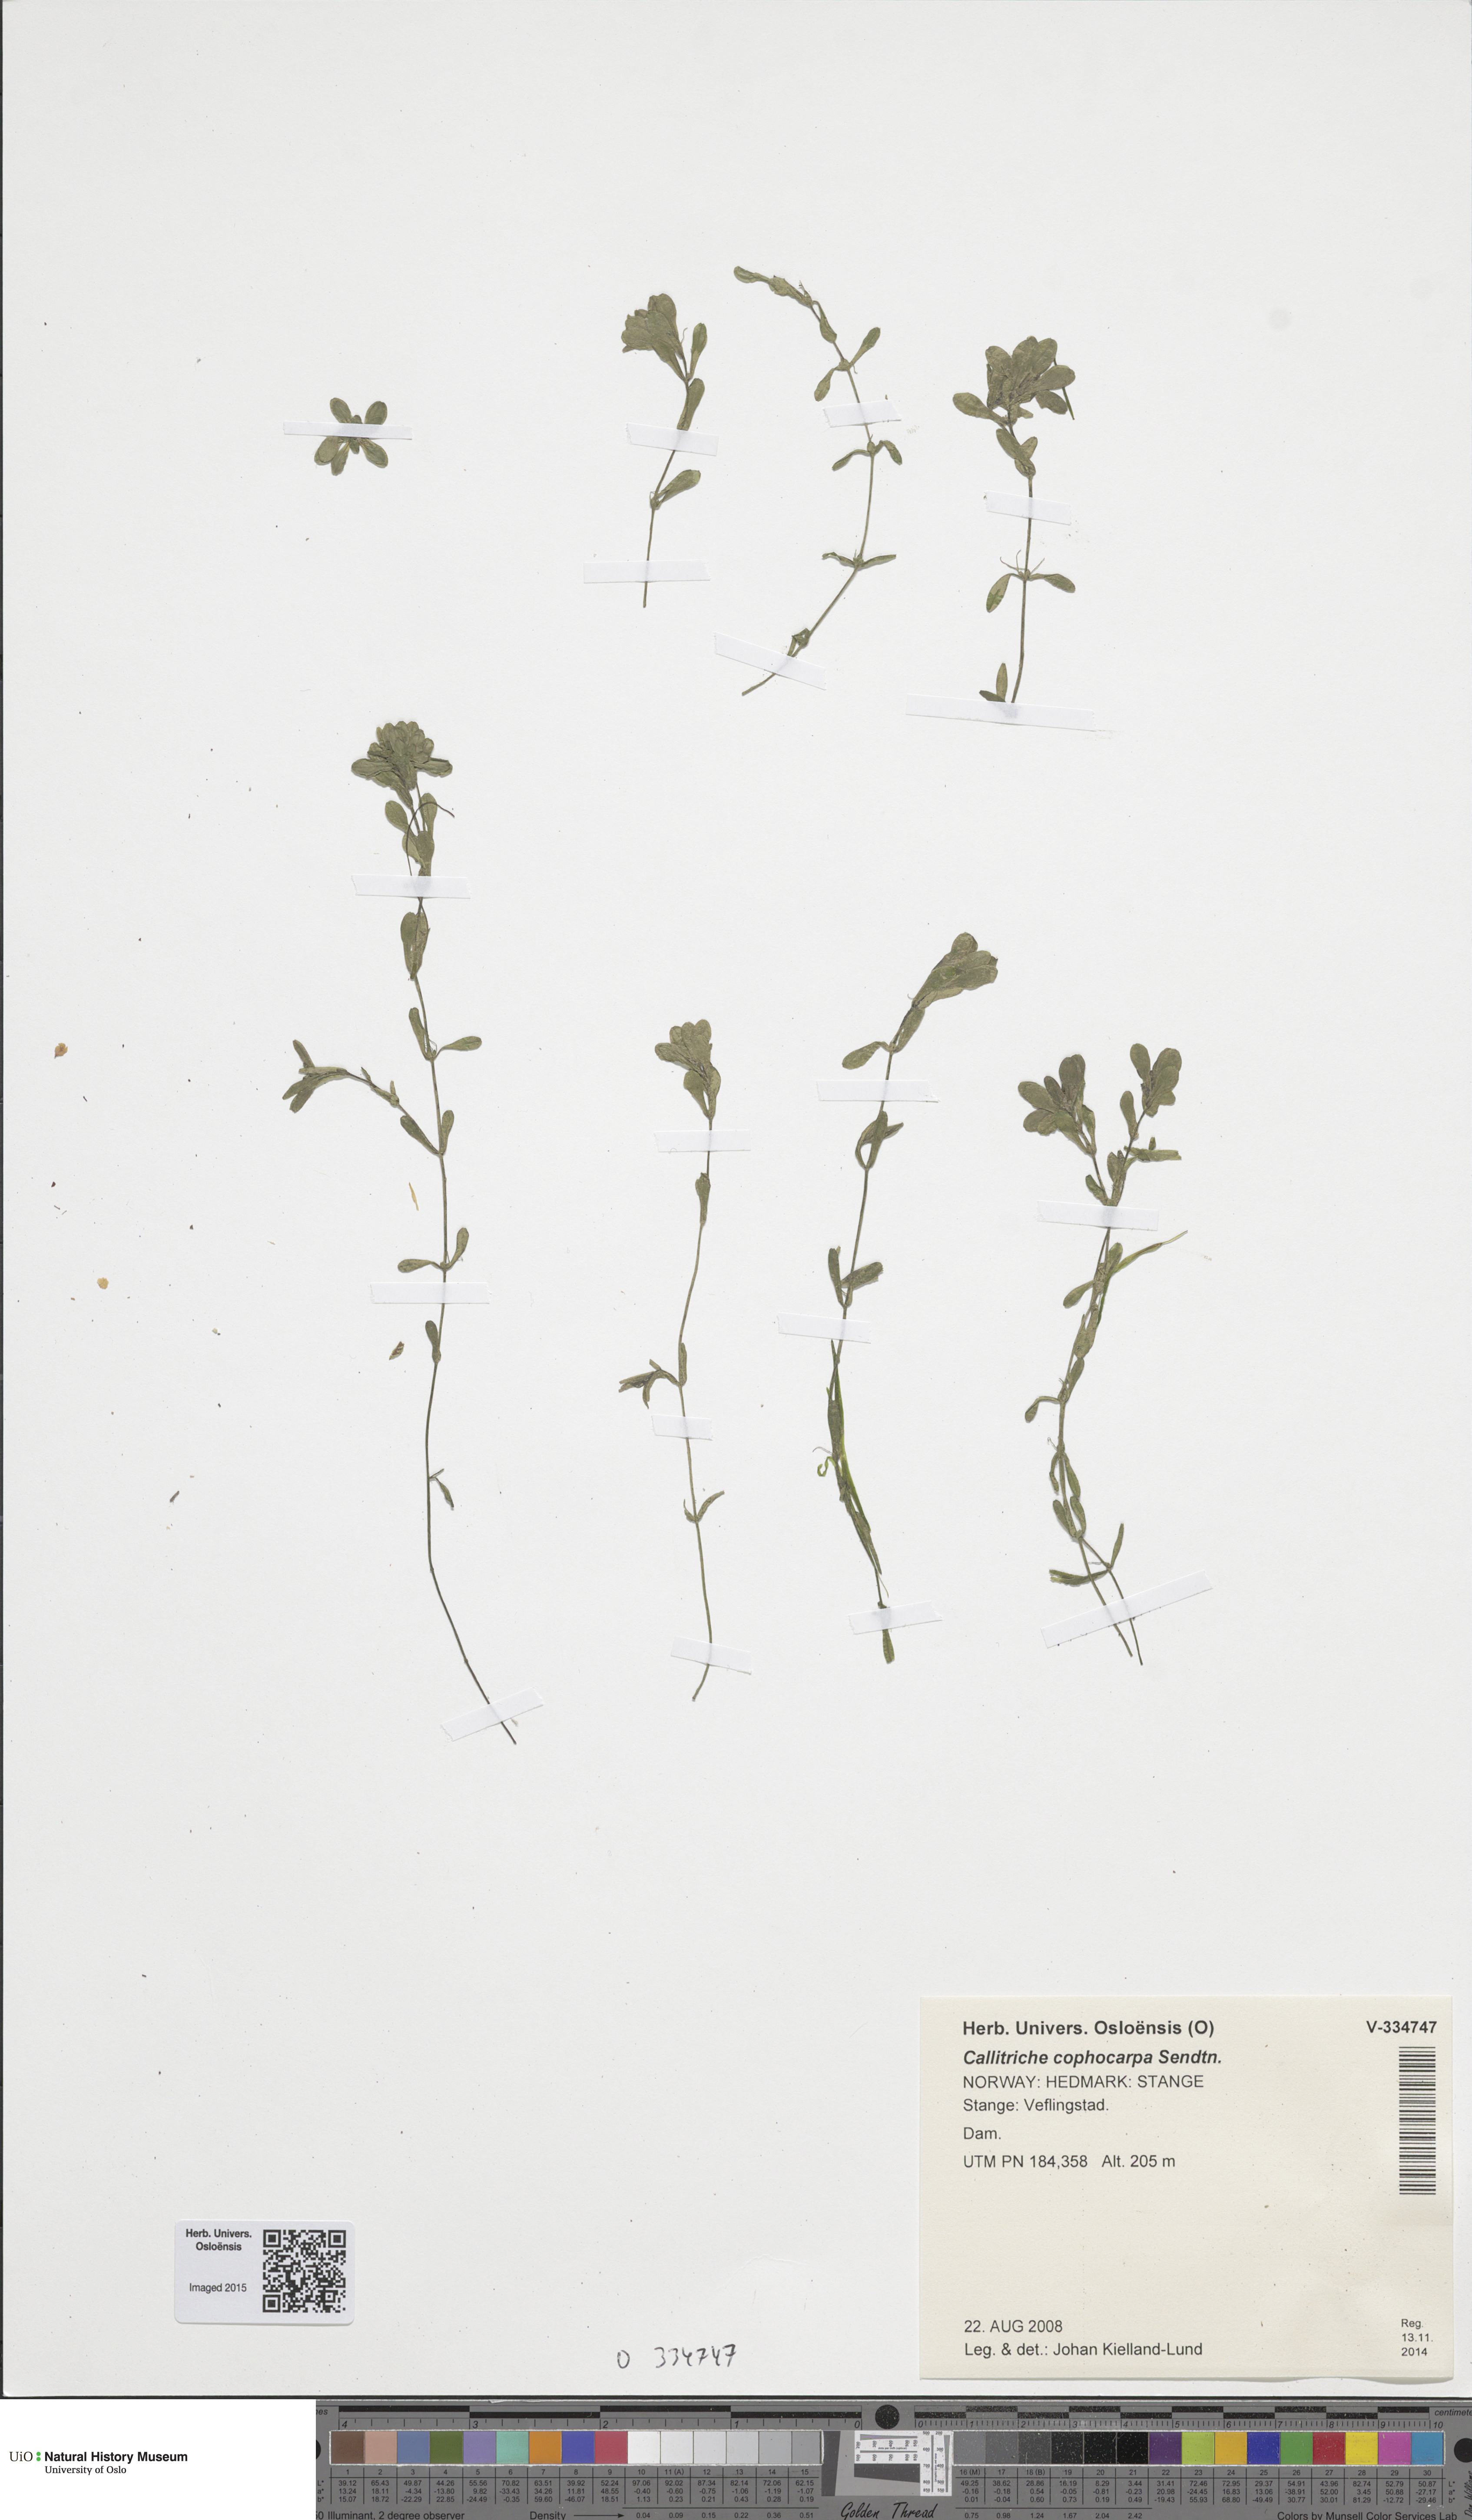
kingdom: Plantae
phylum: Tracheophyta
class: Magnoliopsida
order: Lamiales
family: Plantaginaceae
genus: Callitriche
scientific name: Callitriche cophocarpa
